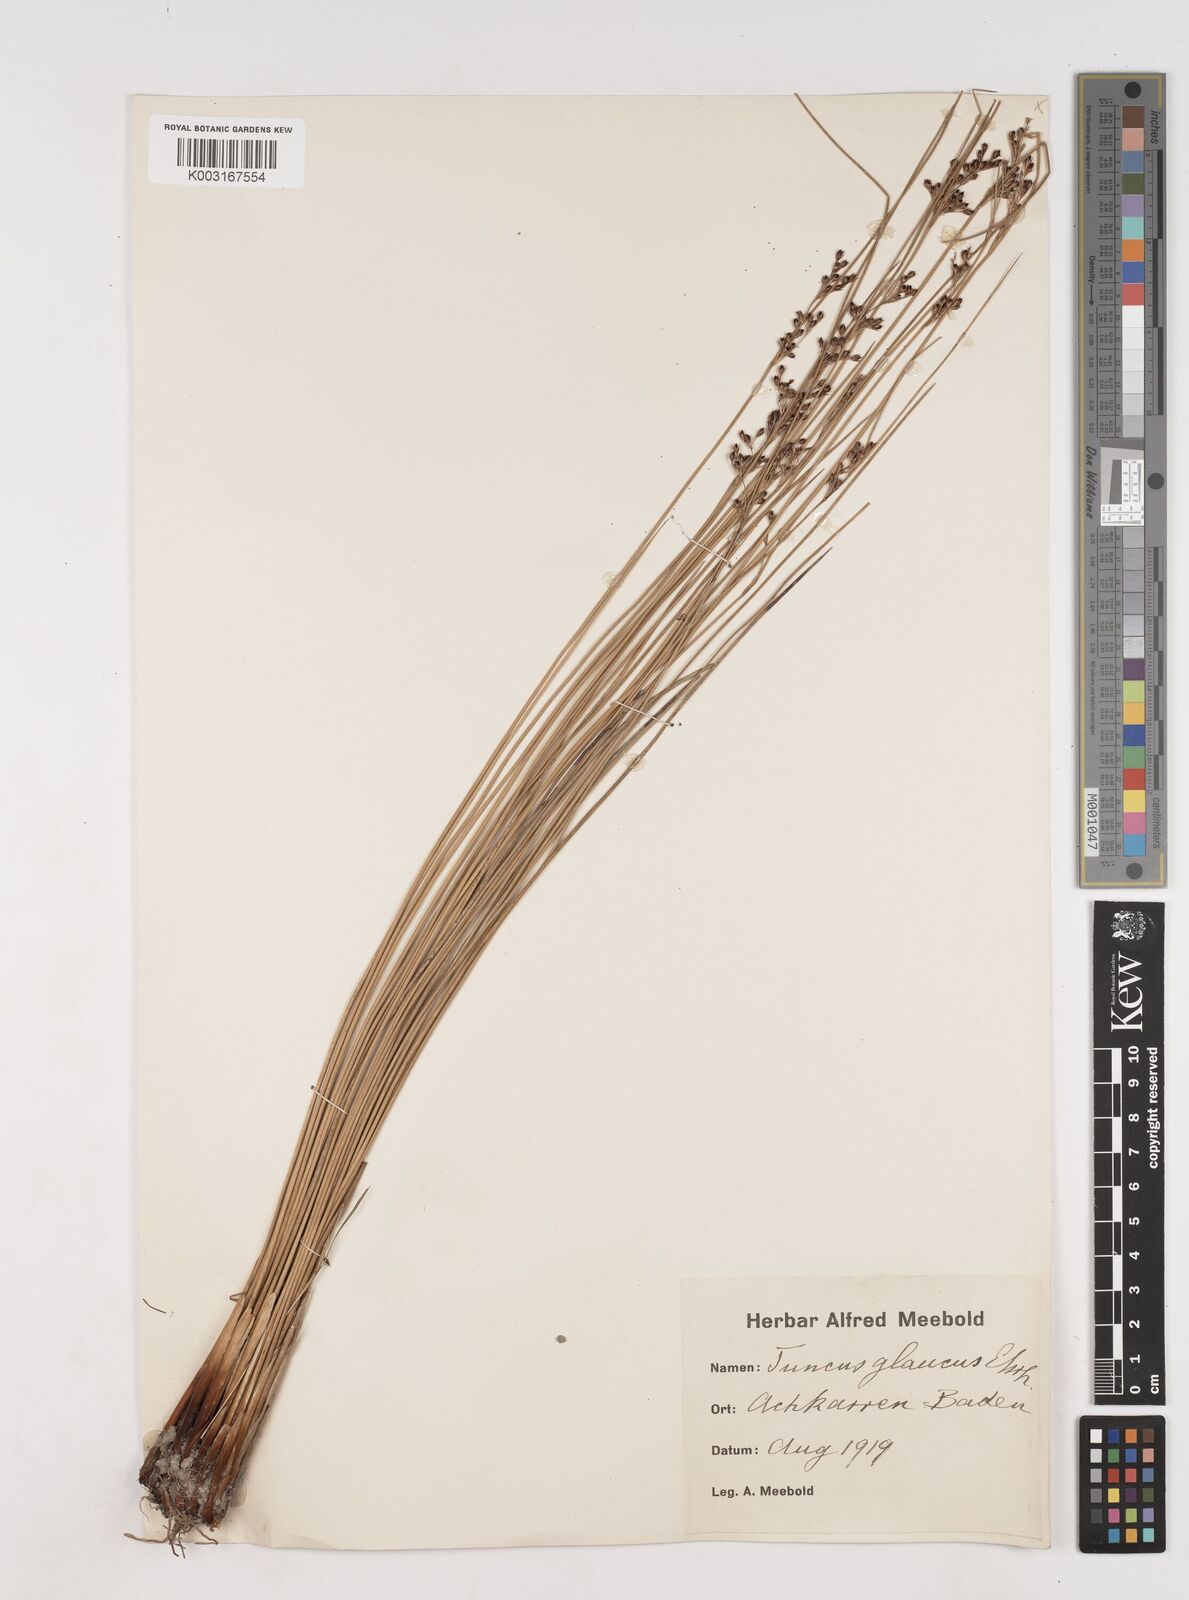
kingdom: Plantae
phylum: Tracheophyta
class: Liliopsida
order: Poales
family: Juncaceae
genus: Juncus
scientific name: Juncus inflexus
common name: Hard rush
